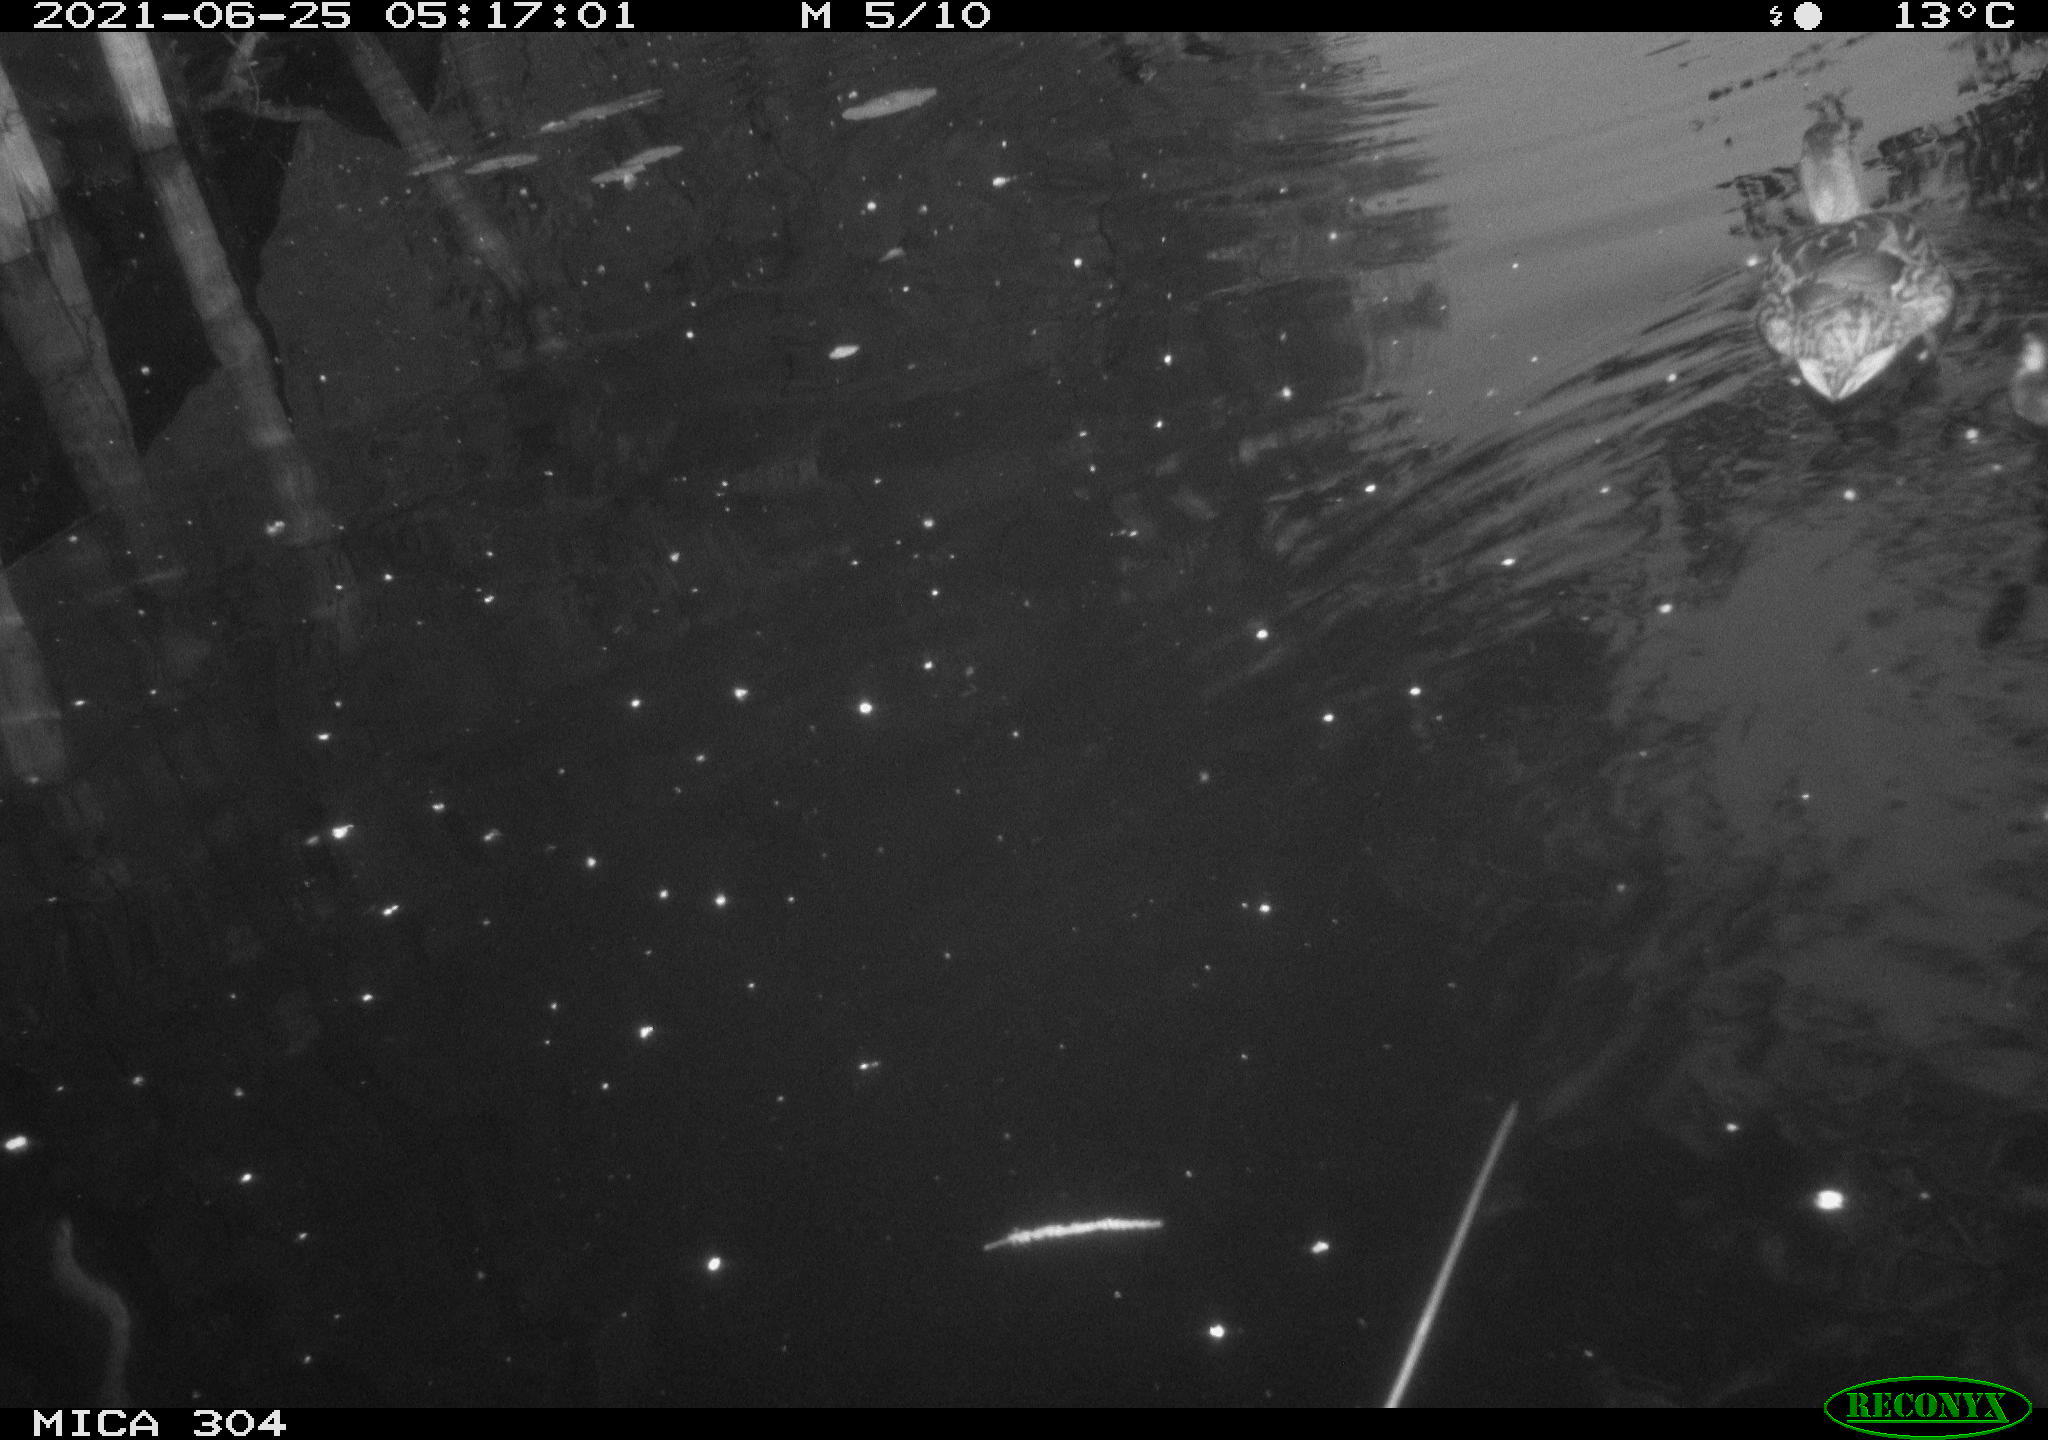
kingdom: Animalia
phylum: Chordata
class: Aves
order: Anseriformes
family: Anatidae
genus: Mareca
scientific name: Mareca strepera
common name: Gadwall
